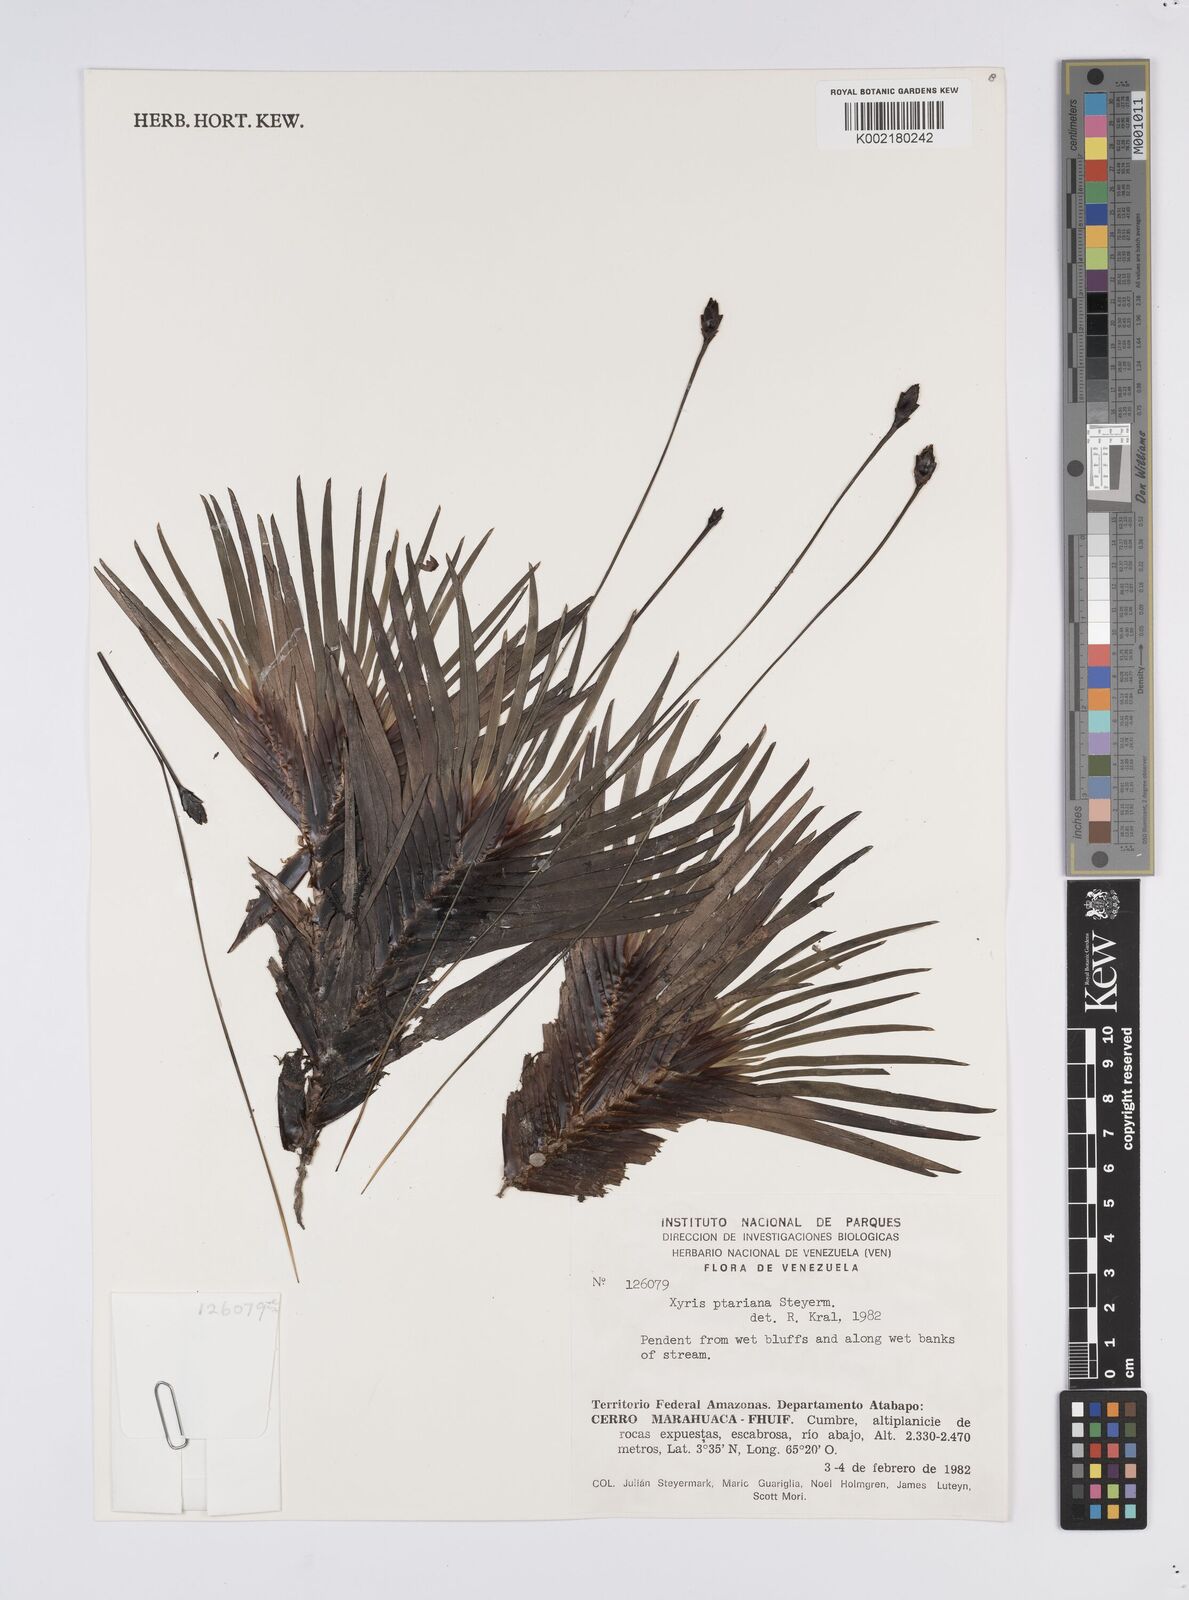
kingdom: Plantae
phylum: Tracheophyta
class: Liliopsida
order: Poales
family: Xyridaceae
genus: Xyris
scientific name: Xyris ptariana
